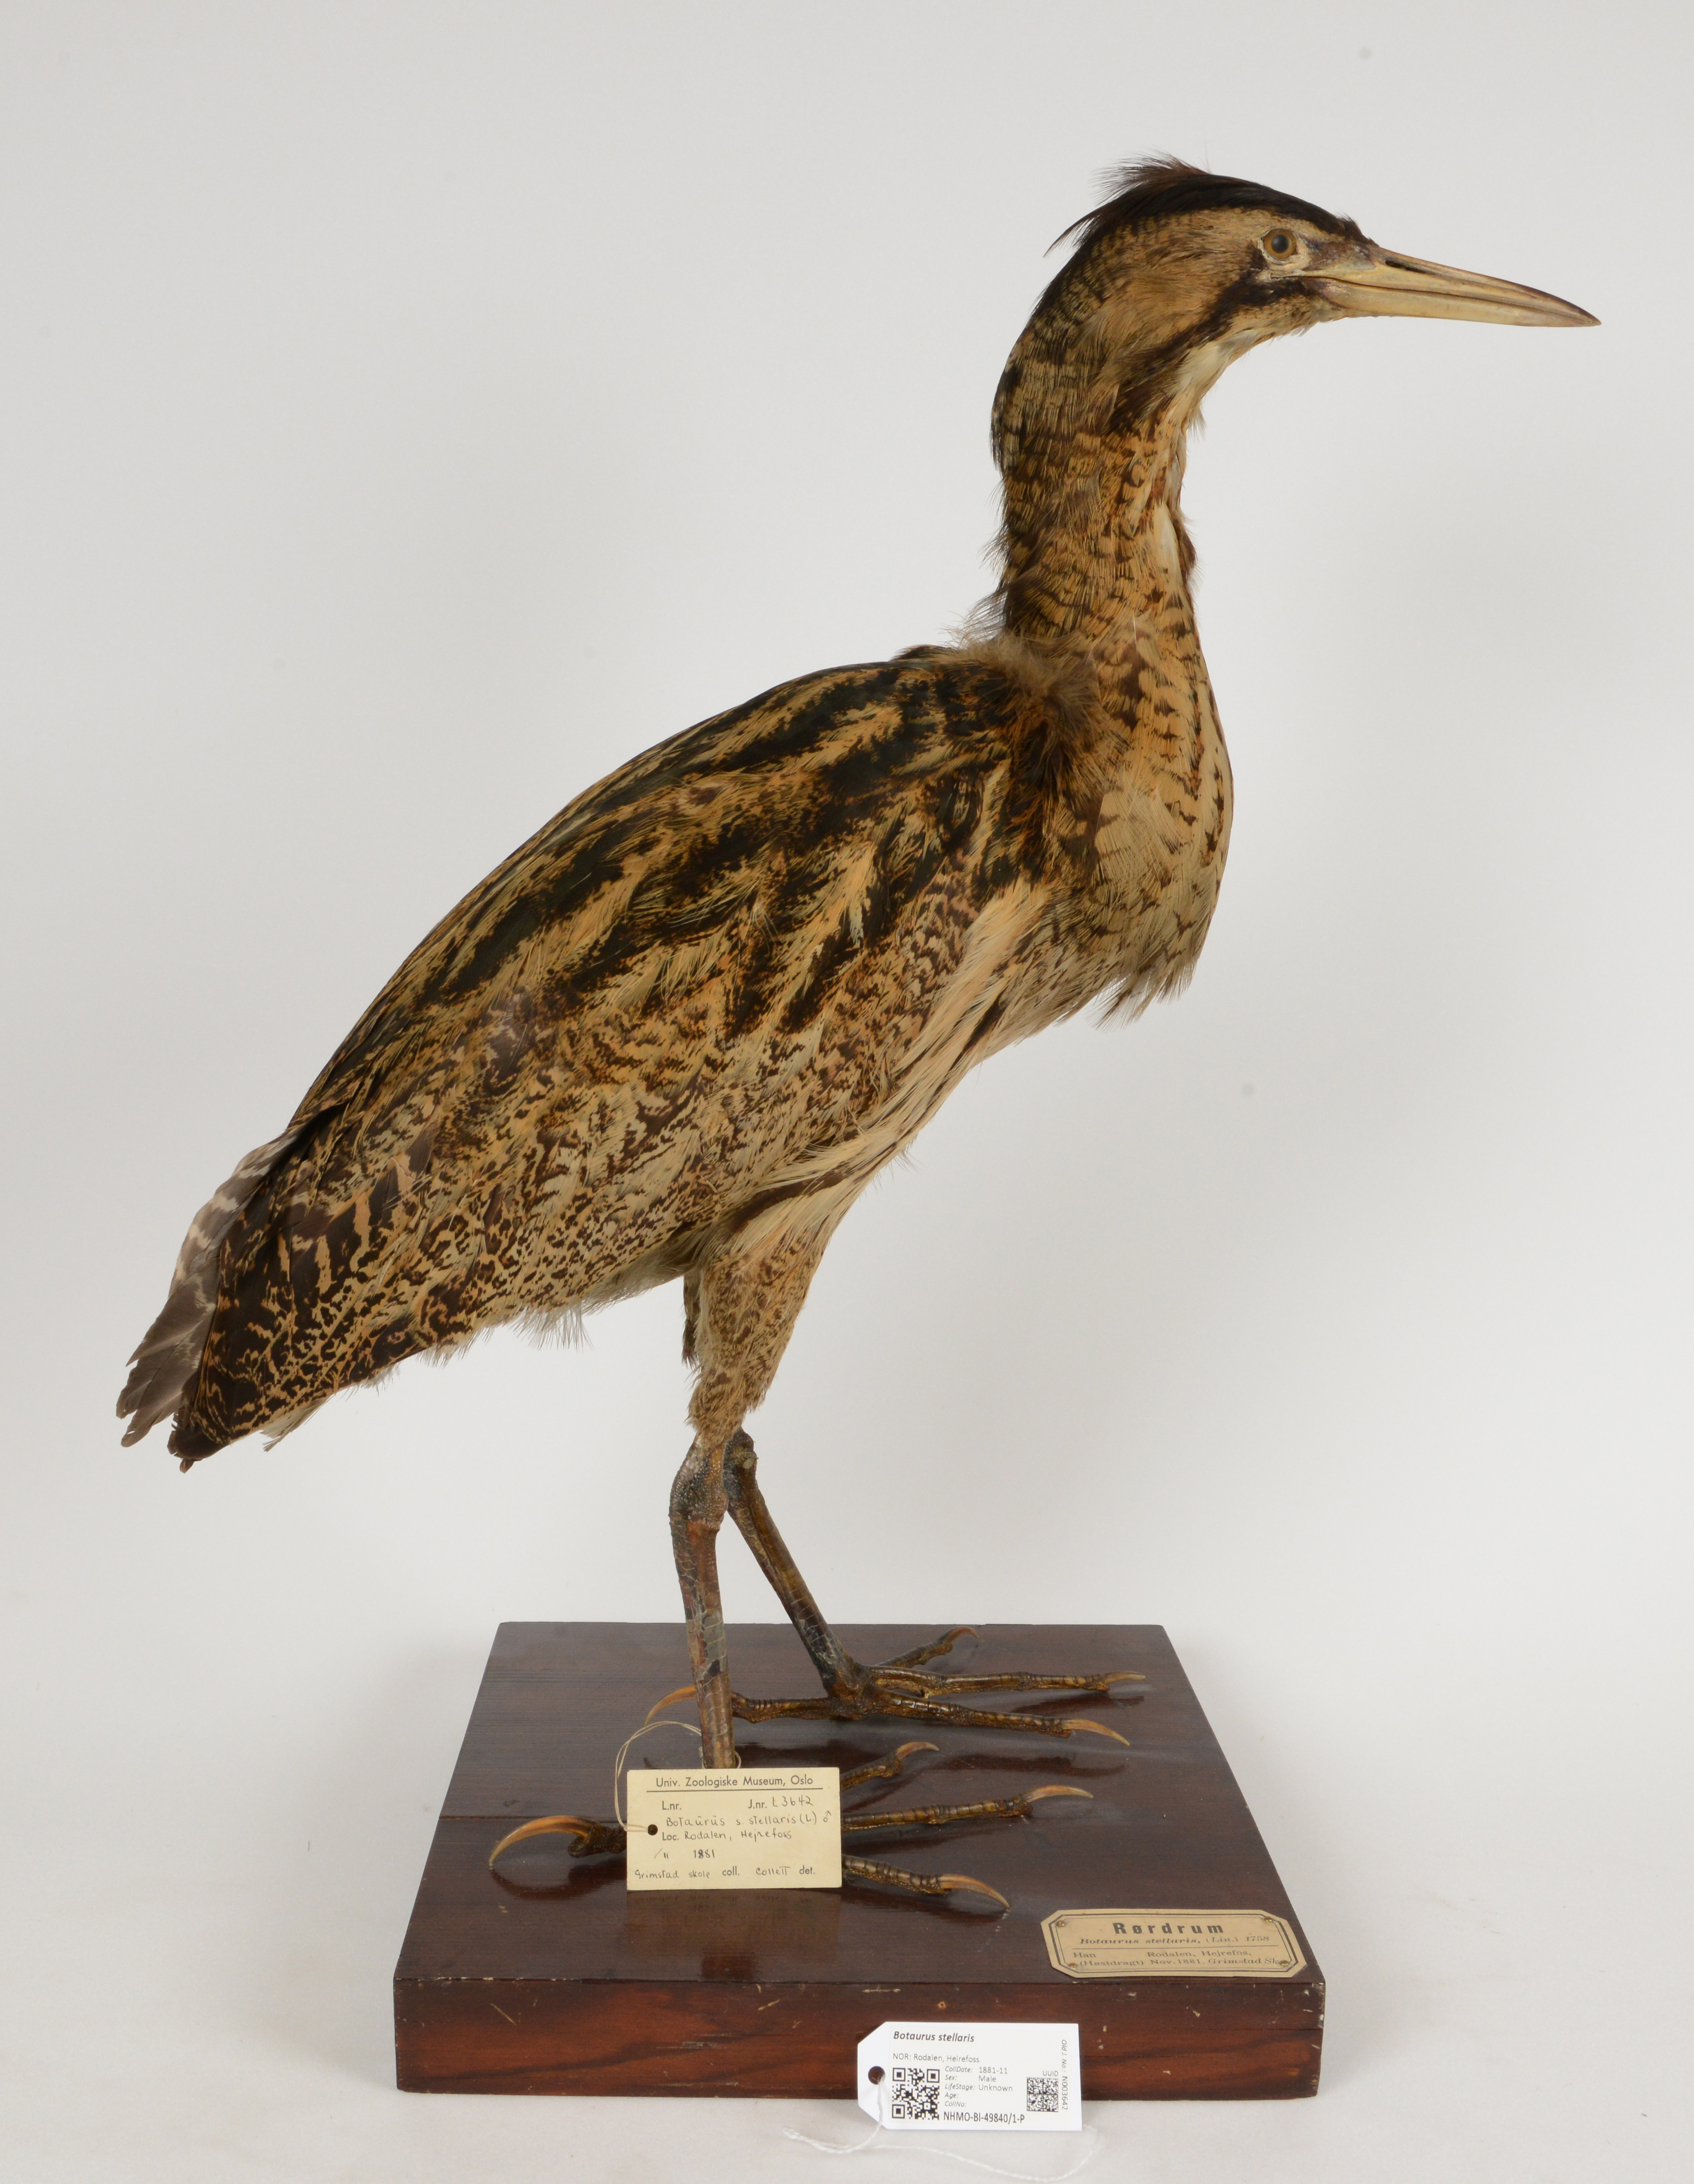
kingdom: Animalia
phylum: Chordata
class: Aves
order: Pelecaniformes
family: Ardeidae
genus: Botaurus
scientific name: Botaurus stellaris
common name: Eurasian bittern
